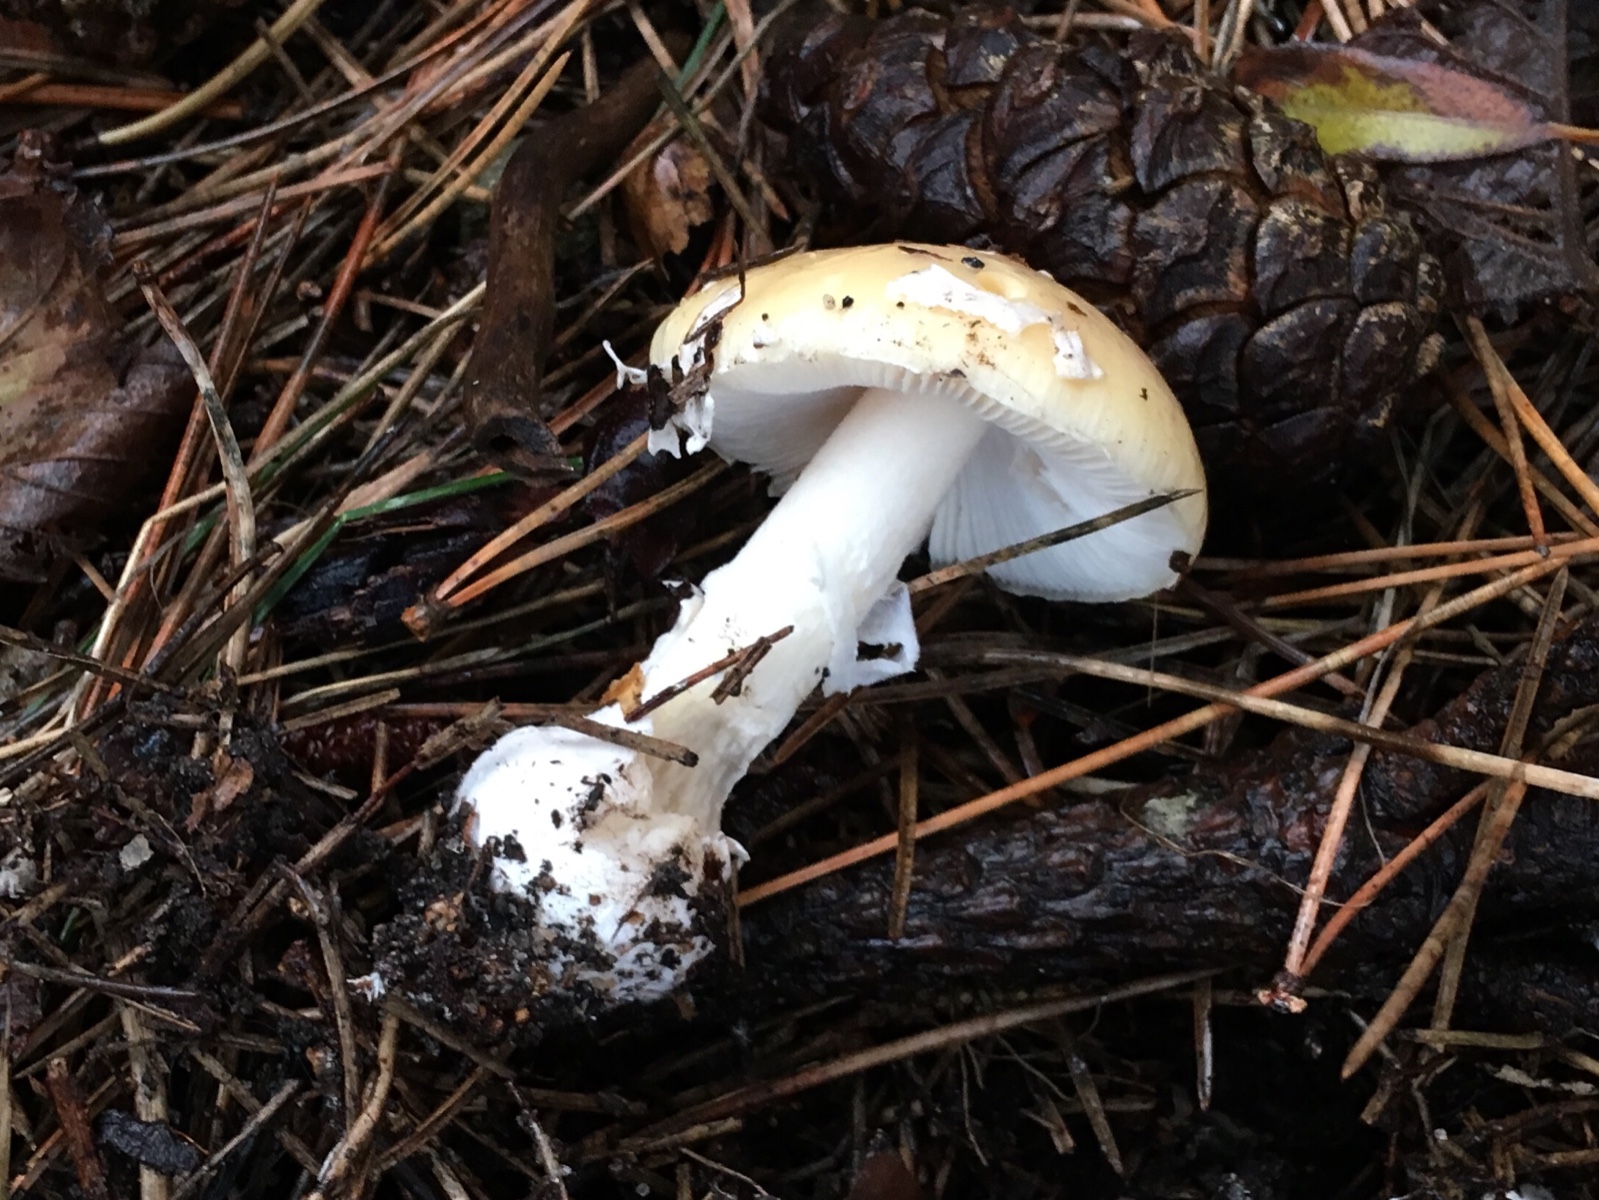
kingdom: Fungi
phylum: Basidiomycota
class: Agaricomycetes
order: Agaricales
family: Amanitaceae
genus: Amanita
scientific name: Amanita gemmata
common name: okkergul fluesvamp
